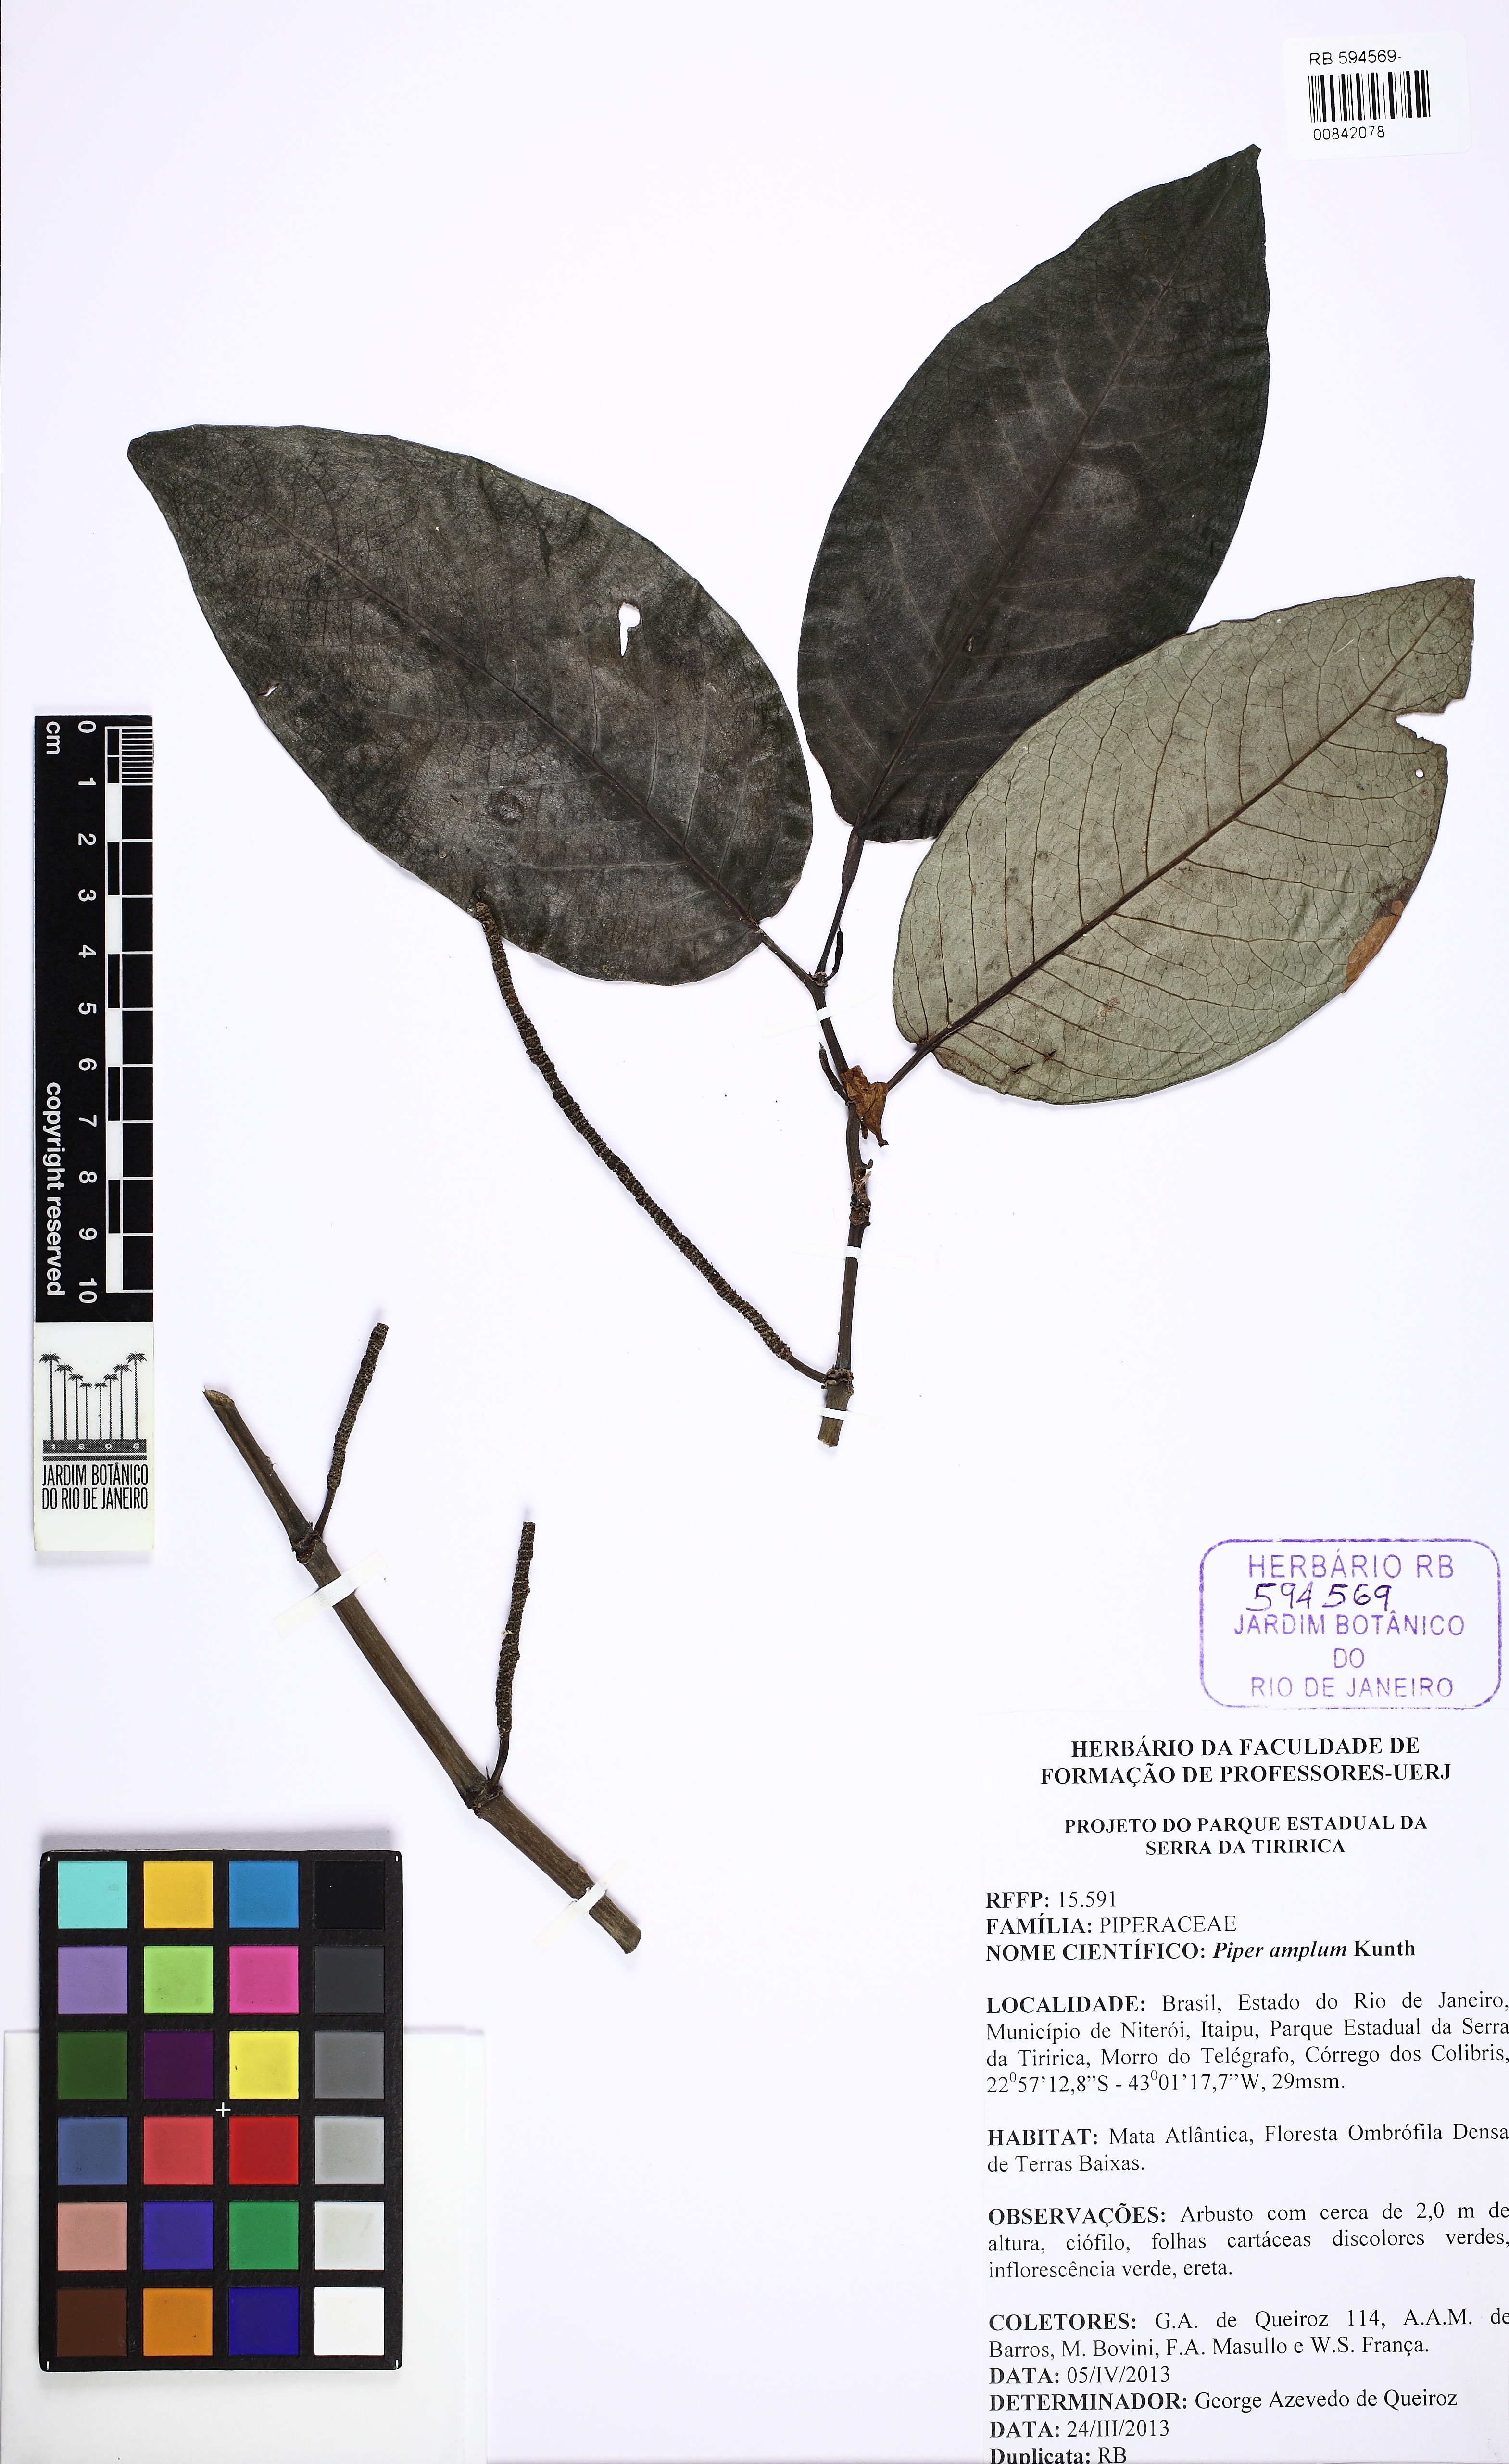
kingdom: Plantae
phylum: Tracheophyta
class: Magnoliopsida
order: Piperales
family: Piperaceae
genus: Piper
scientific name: Piper fluminense
